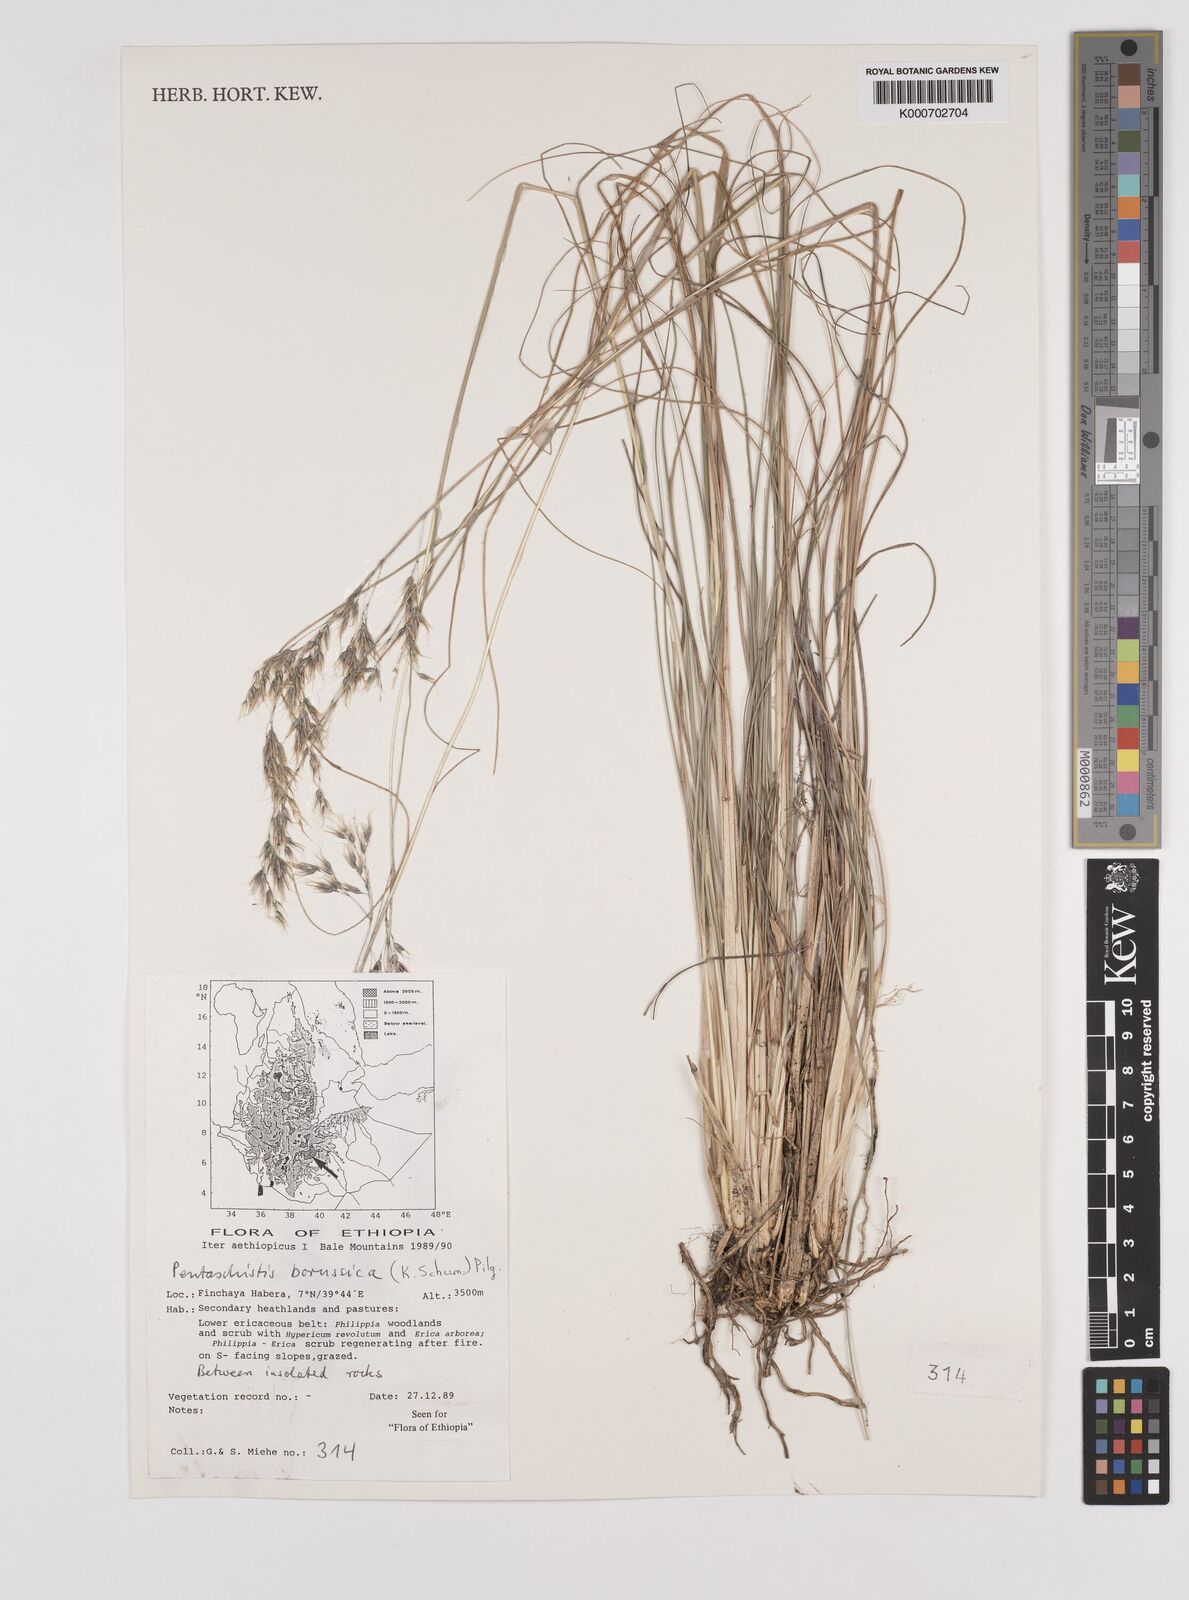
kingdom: Plantae
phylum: Tracheophyta
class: Liliopsida
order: Poales
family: Poaceae
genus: Pentameris
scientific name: Pentameris borussica
